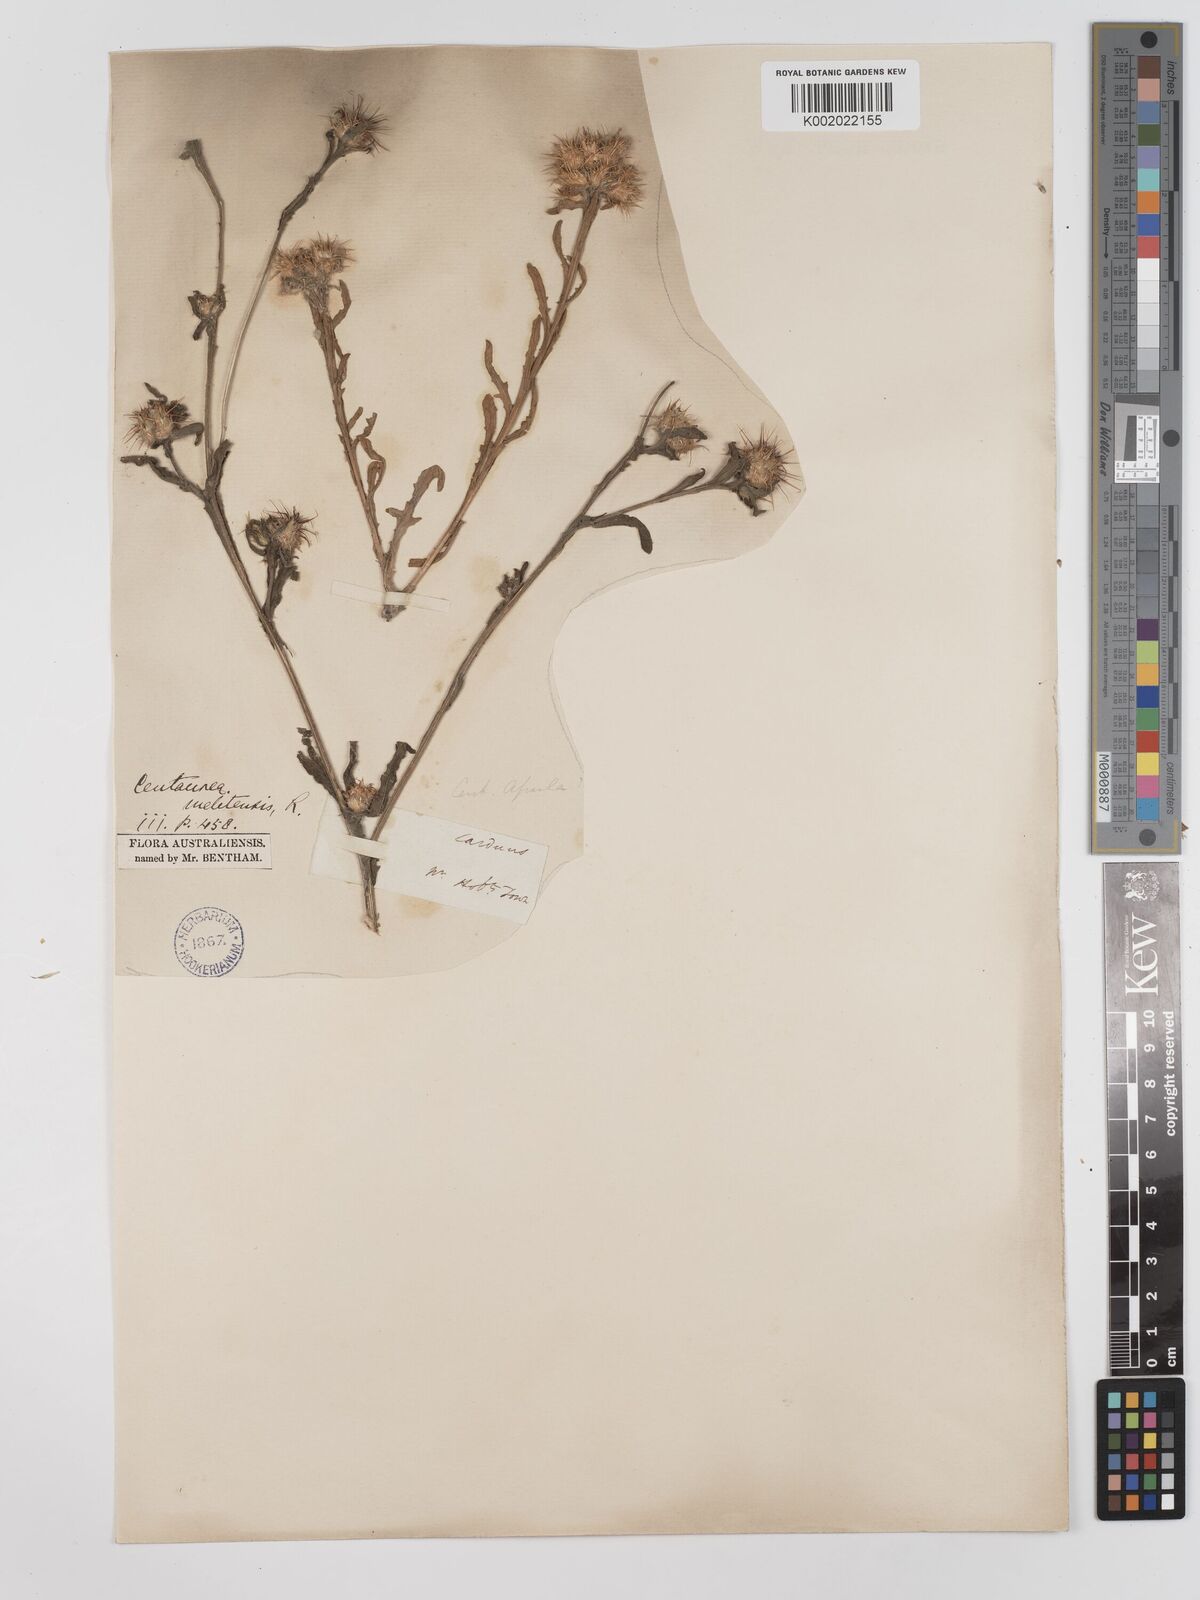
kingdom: Plantae
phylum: Tracheophyta
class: Magnoliopsida
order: Asterales
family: Asteraceae
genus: Centaurea
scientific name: Centaurea melitensis
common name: Maltese star-thistle
